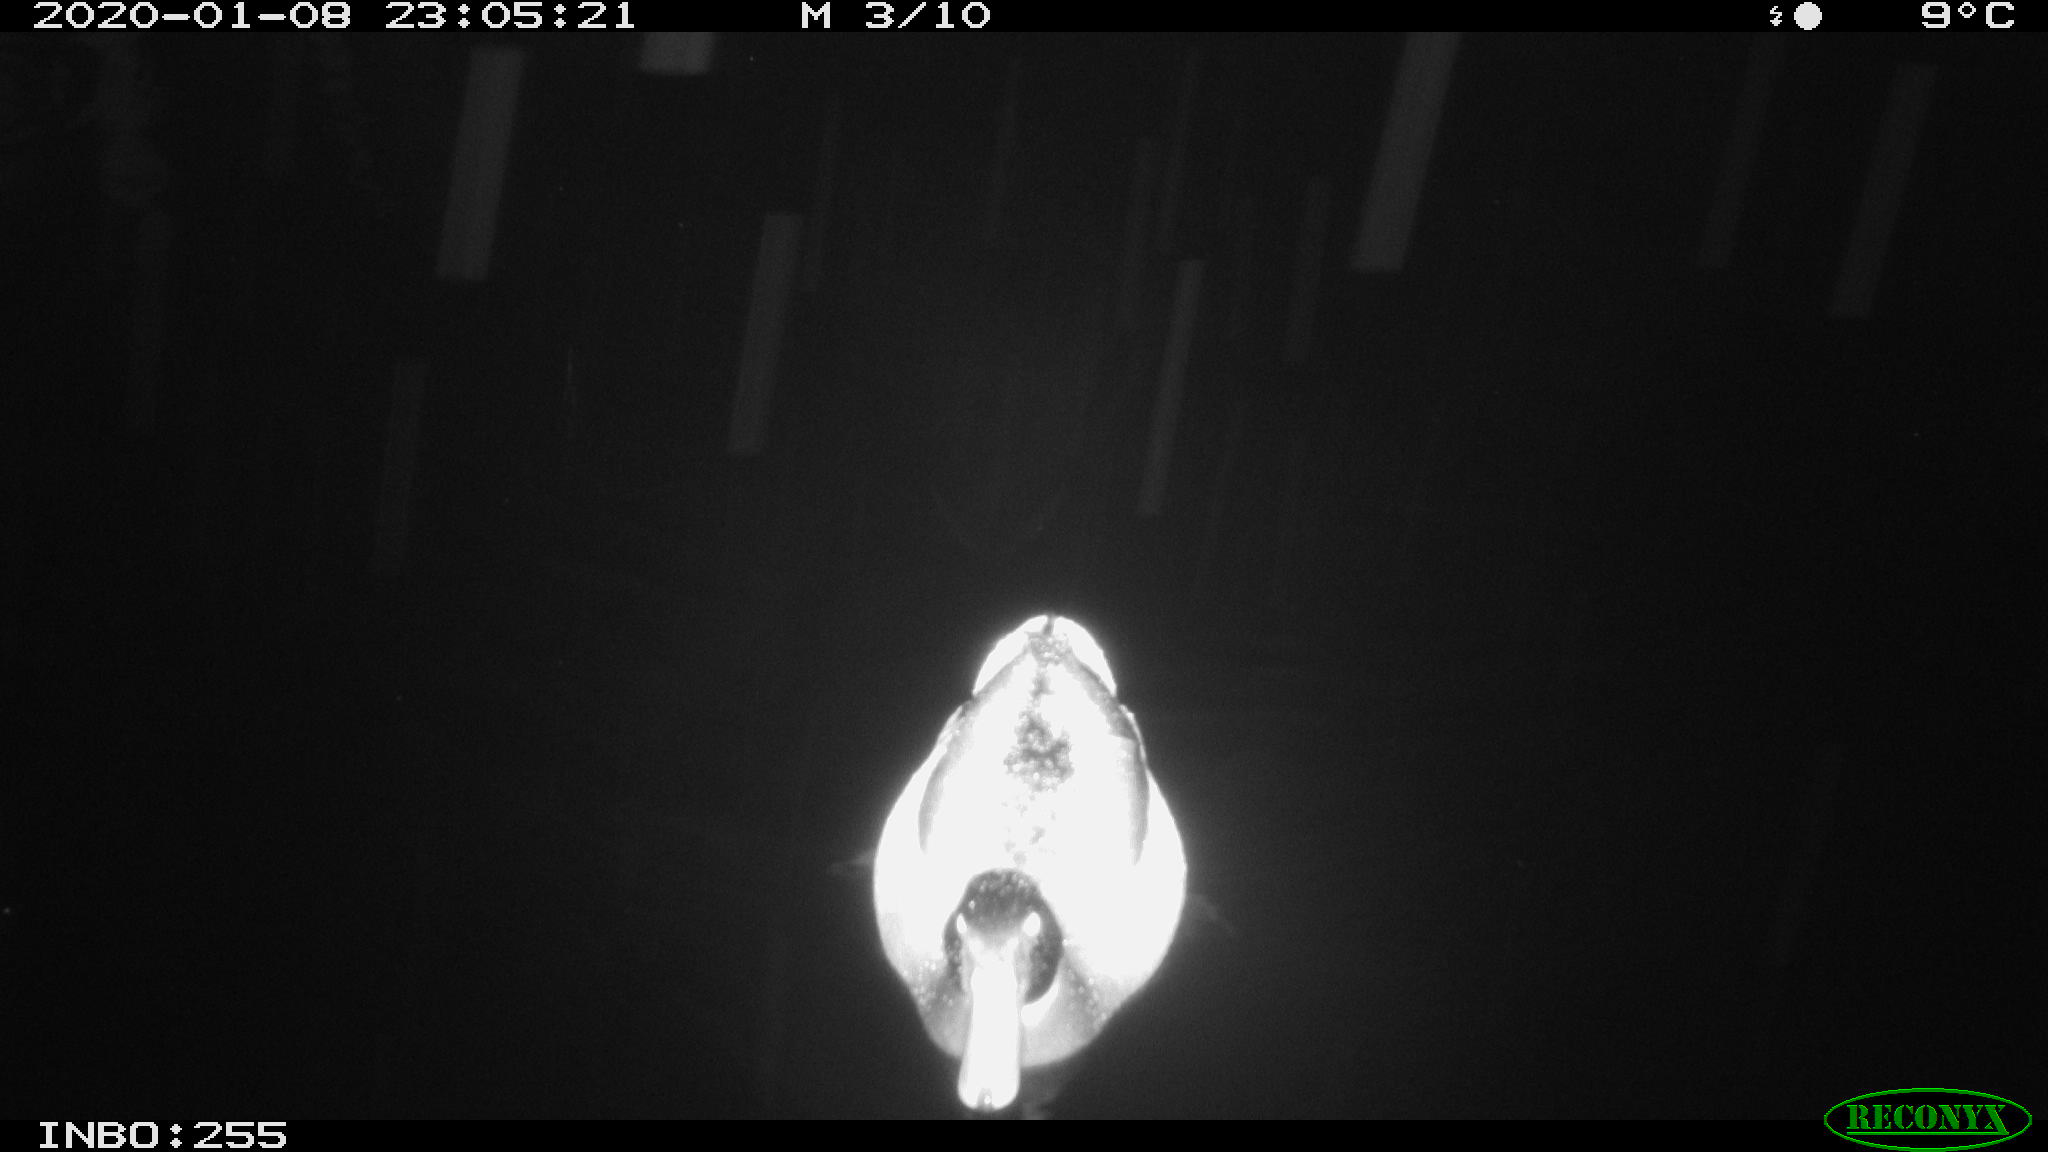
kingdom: Animalia
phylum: Chordata
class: Aves
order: Anseriformes
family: Anatidae
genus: Anas
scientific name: Anas platyrhynchos
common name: Mallard
